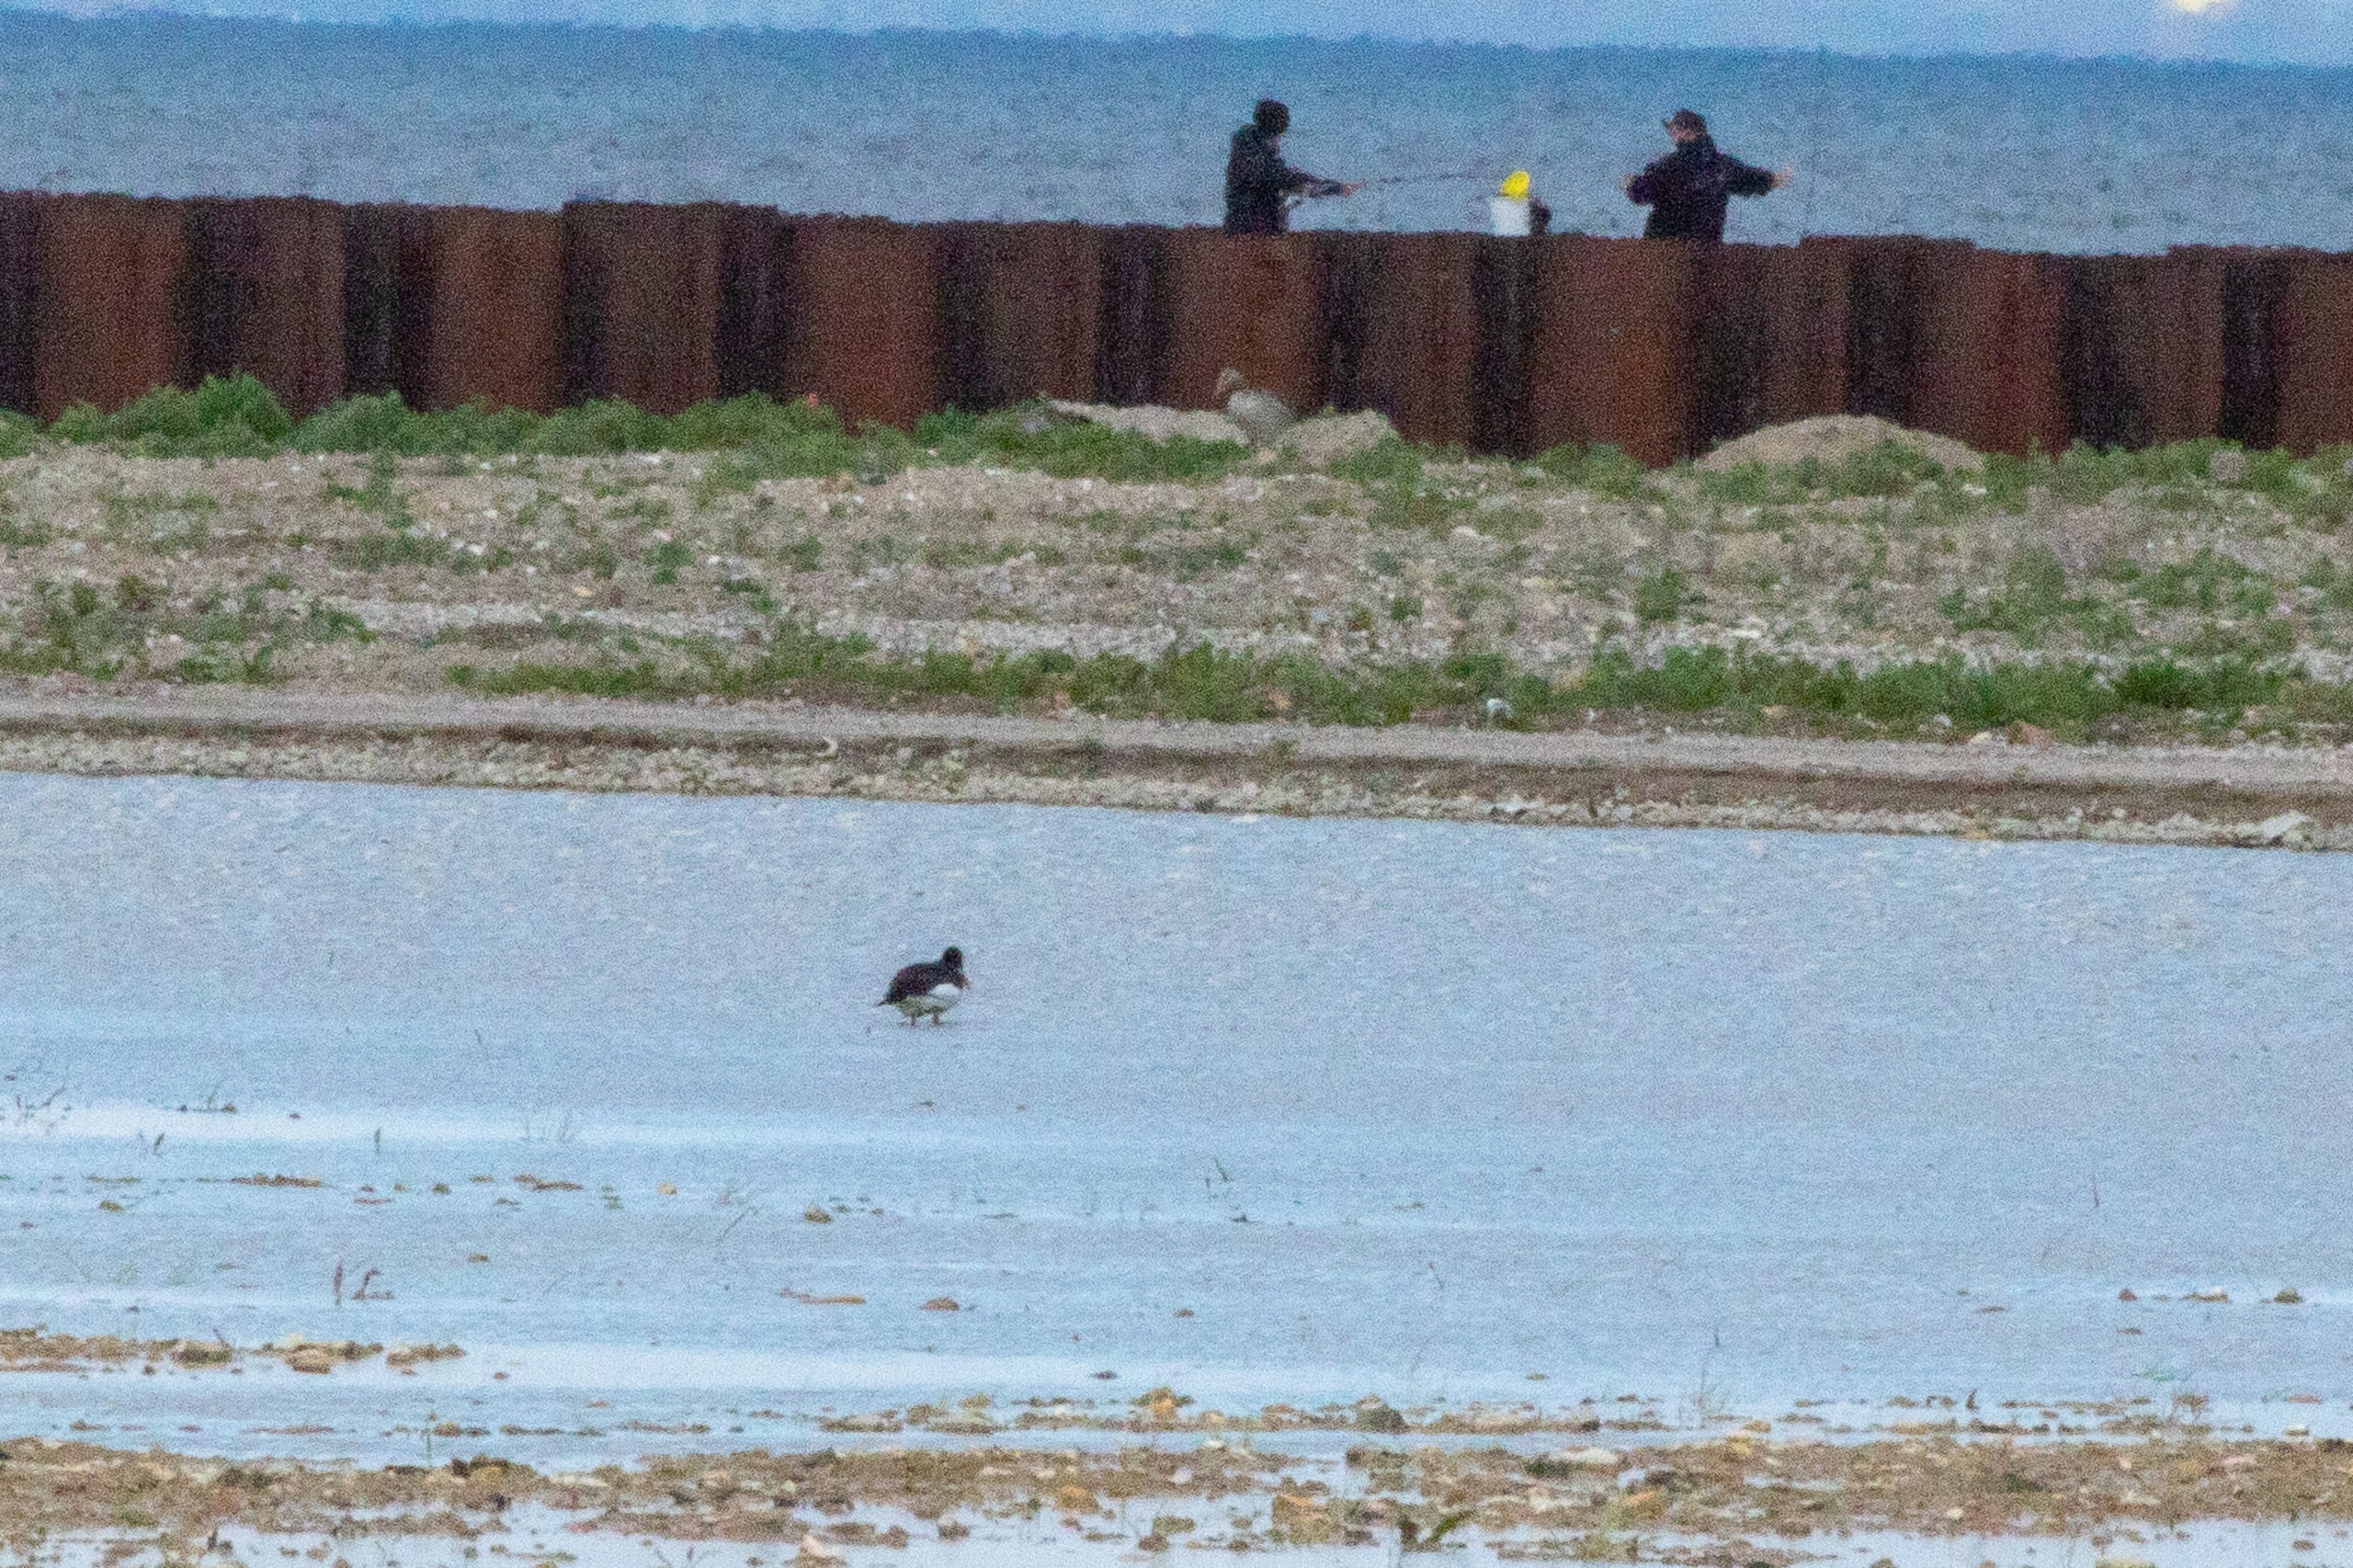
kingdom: Animalia
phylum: Chordata
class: Aves
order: Charadriiformes
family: Haematopodidae
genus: Haematopus
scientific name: Haematopus ostralegus
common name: Strandskade
